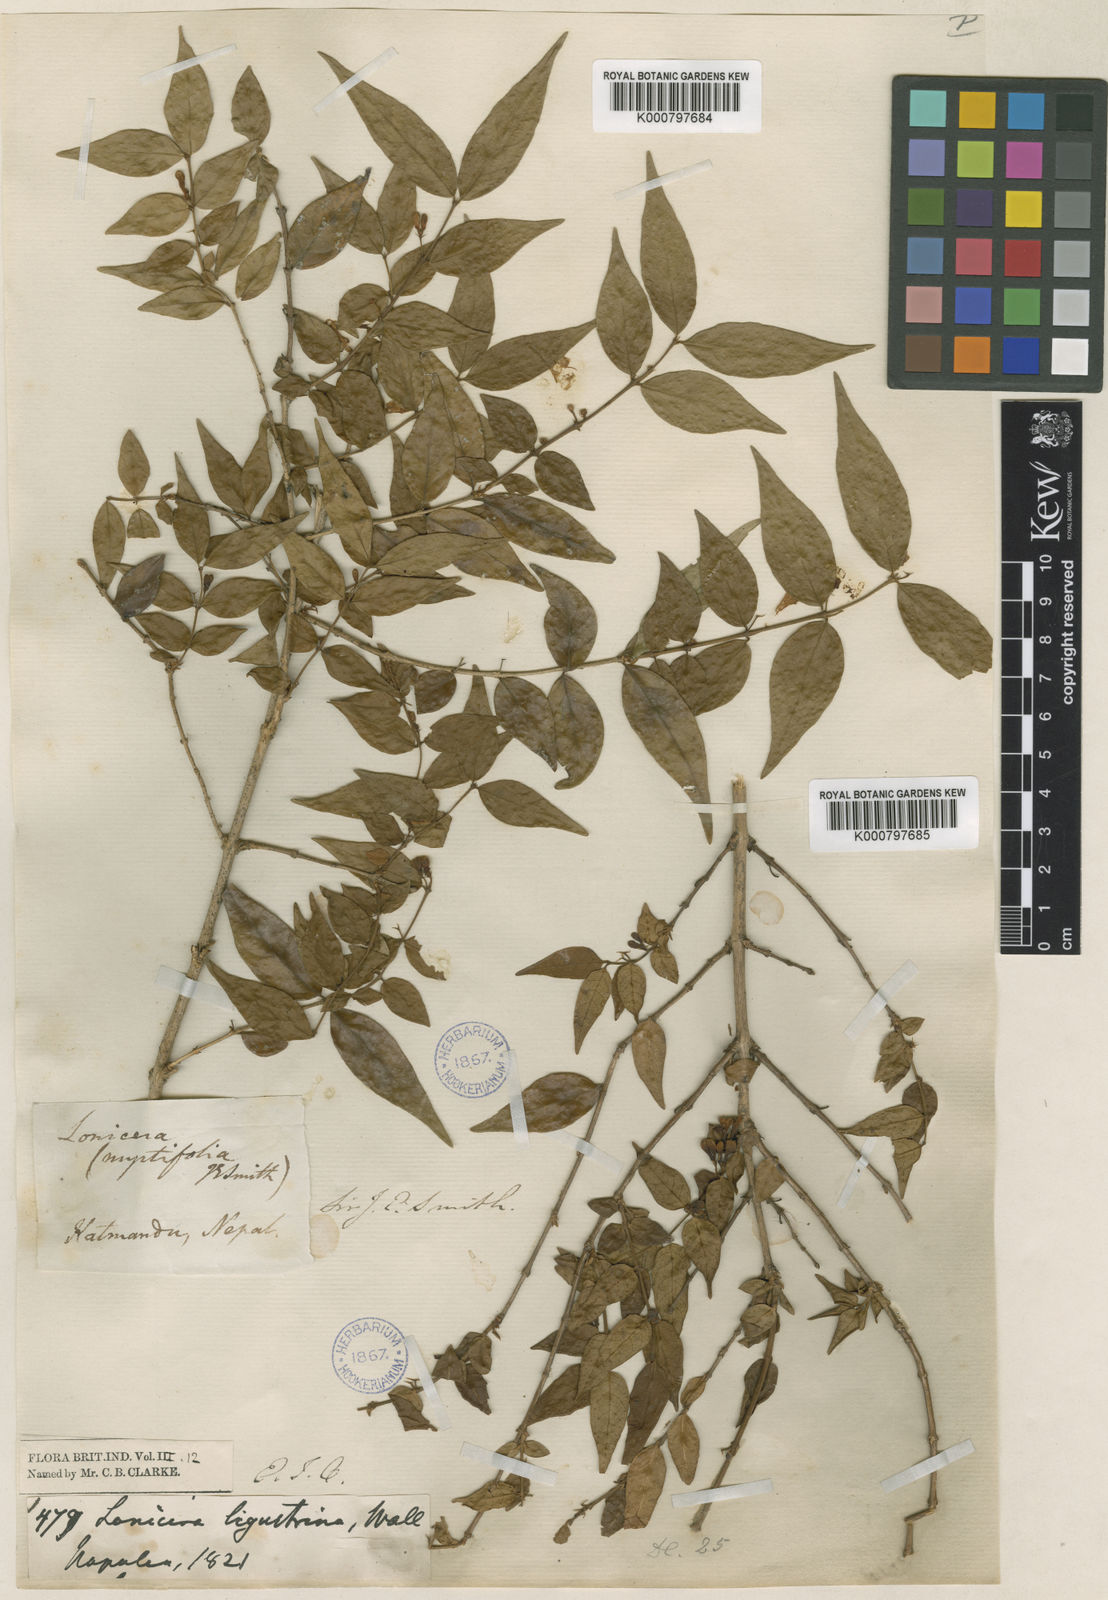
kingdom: Plantae
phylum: Tracheophyta
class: Magnoliopsida
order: Dipsacales
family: Caprifoliaceae
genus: Lonicera
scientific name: Lonicera ligustrina
